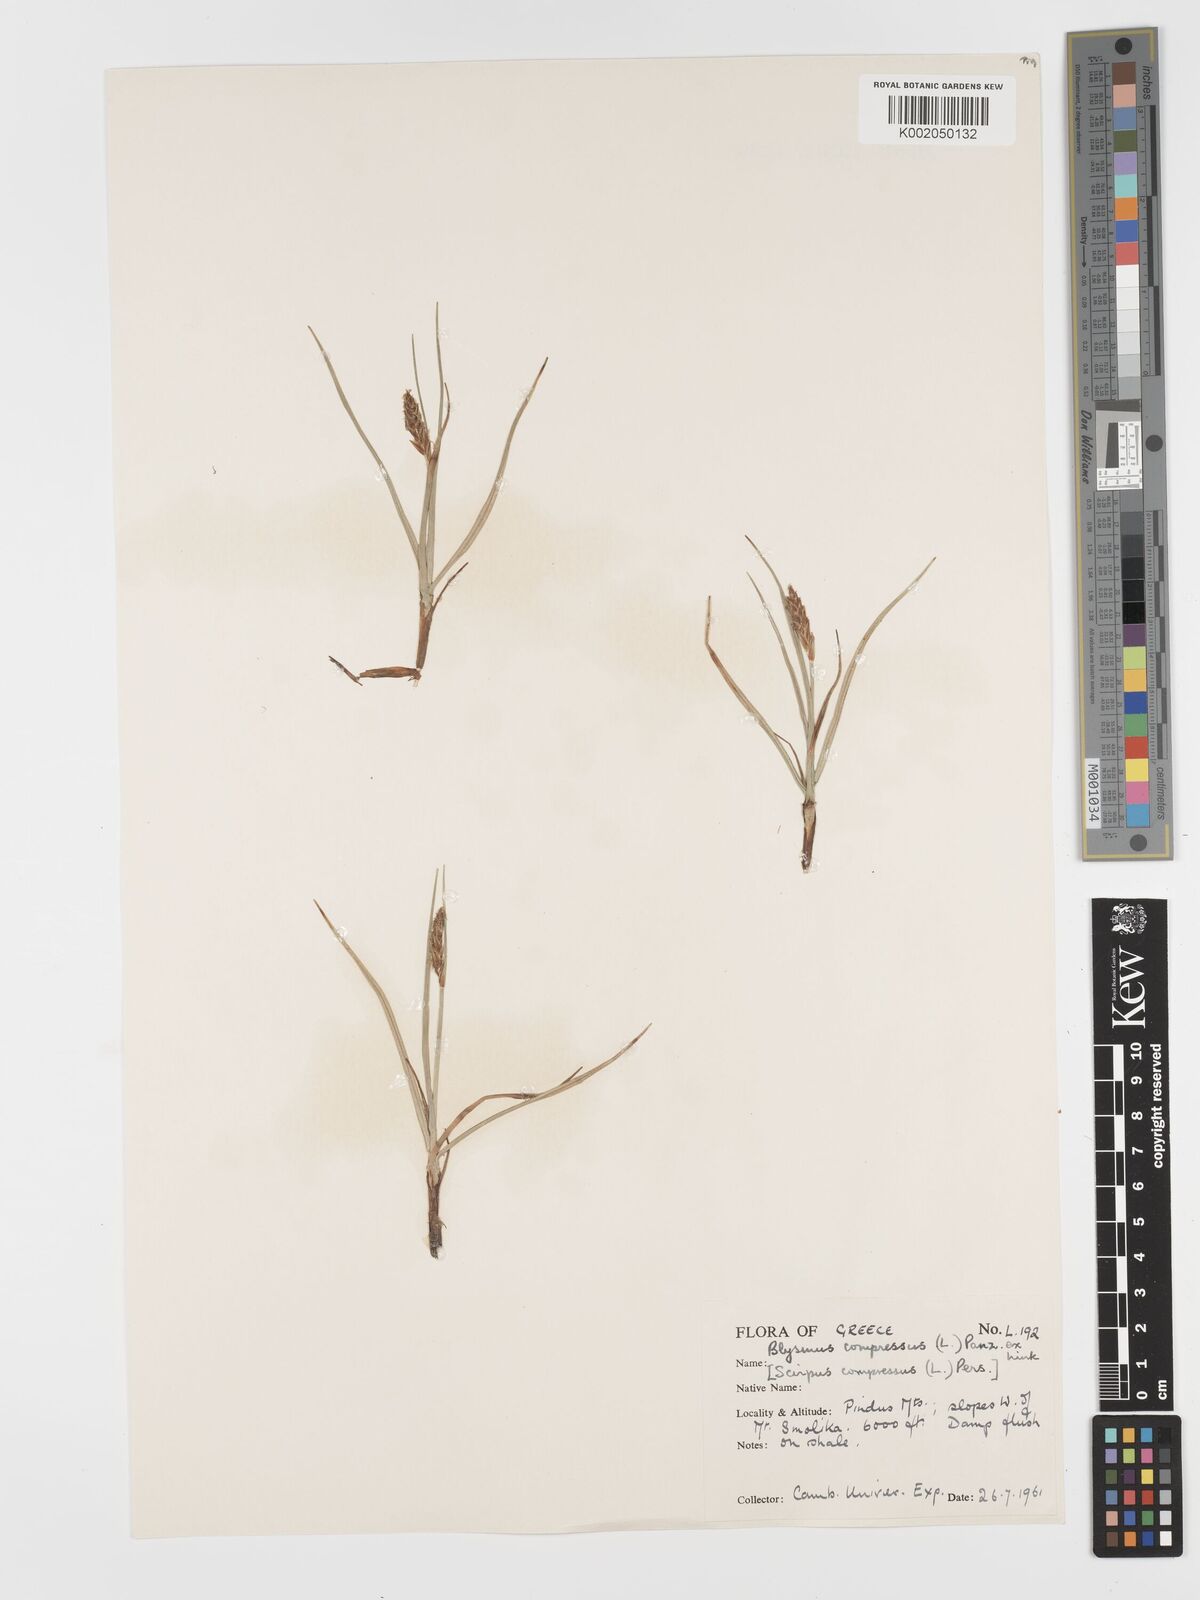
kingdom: Plantae
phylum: Tracheophyta
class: Liliopsida
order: Poales
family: Cyperaceae
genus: Blysmus
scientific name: Blysmus compressus
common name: Flat-sedge
